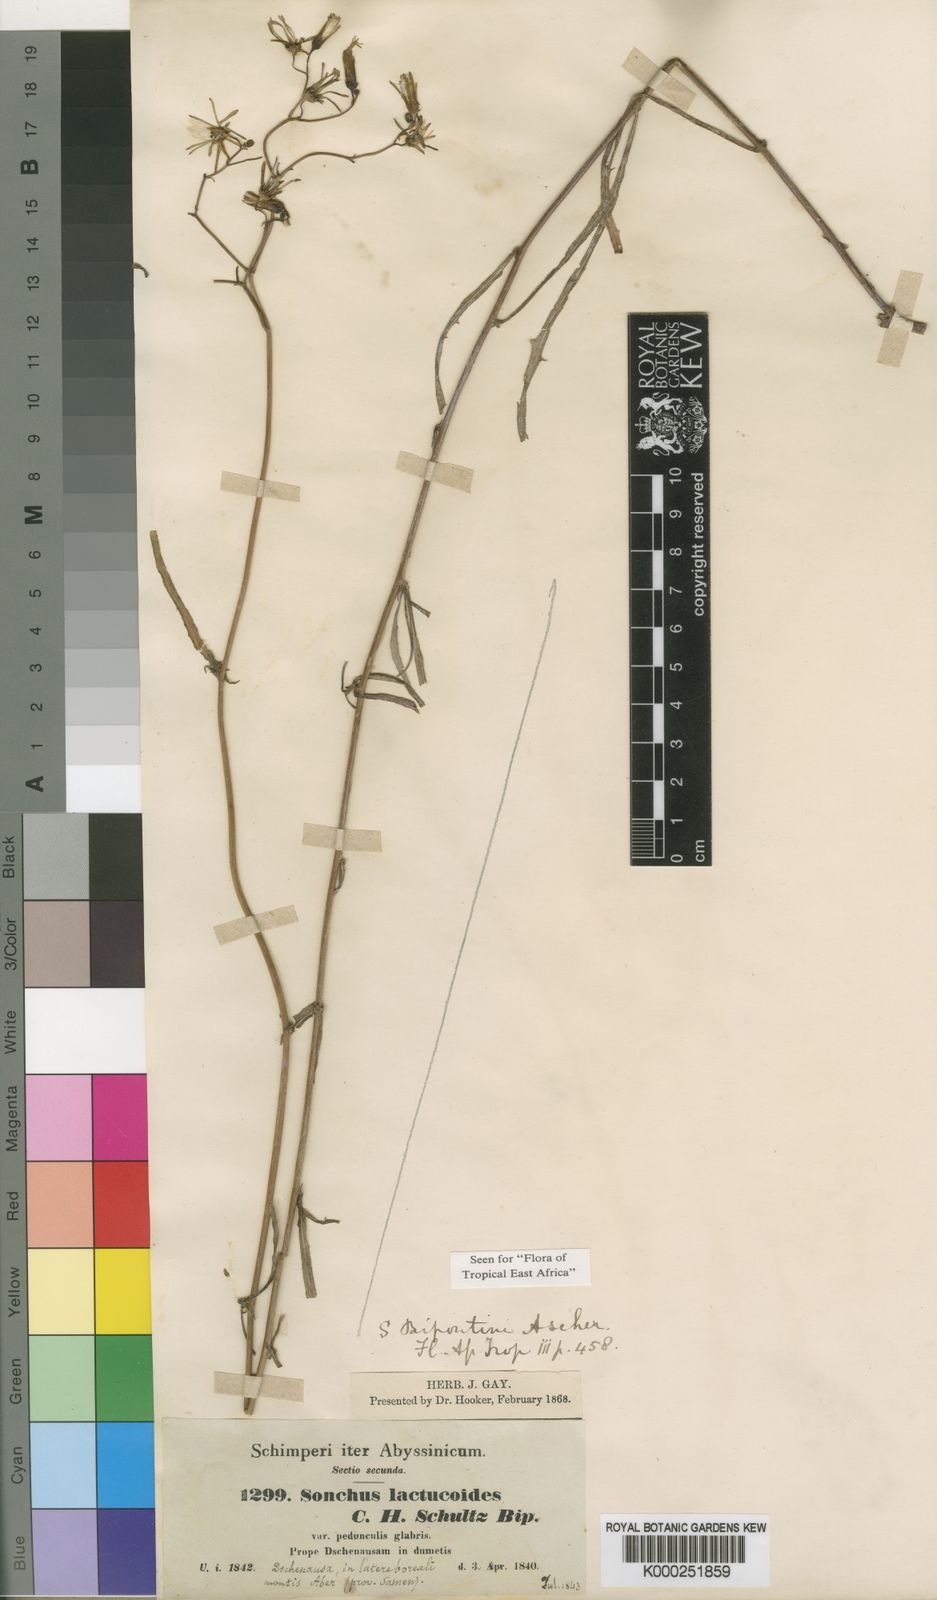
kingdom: Plantae
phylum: Tracheophyta
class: Magnoliopsida
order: Asterales
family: Asteraceae
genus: Sonchus
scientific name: Sonchus
